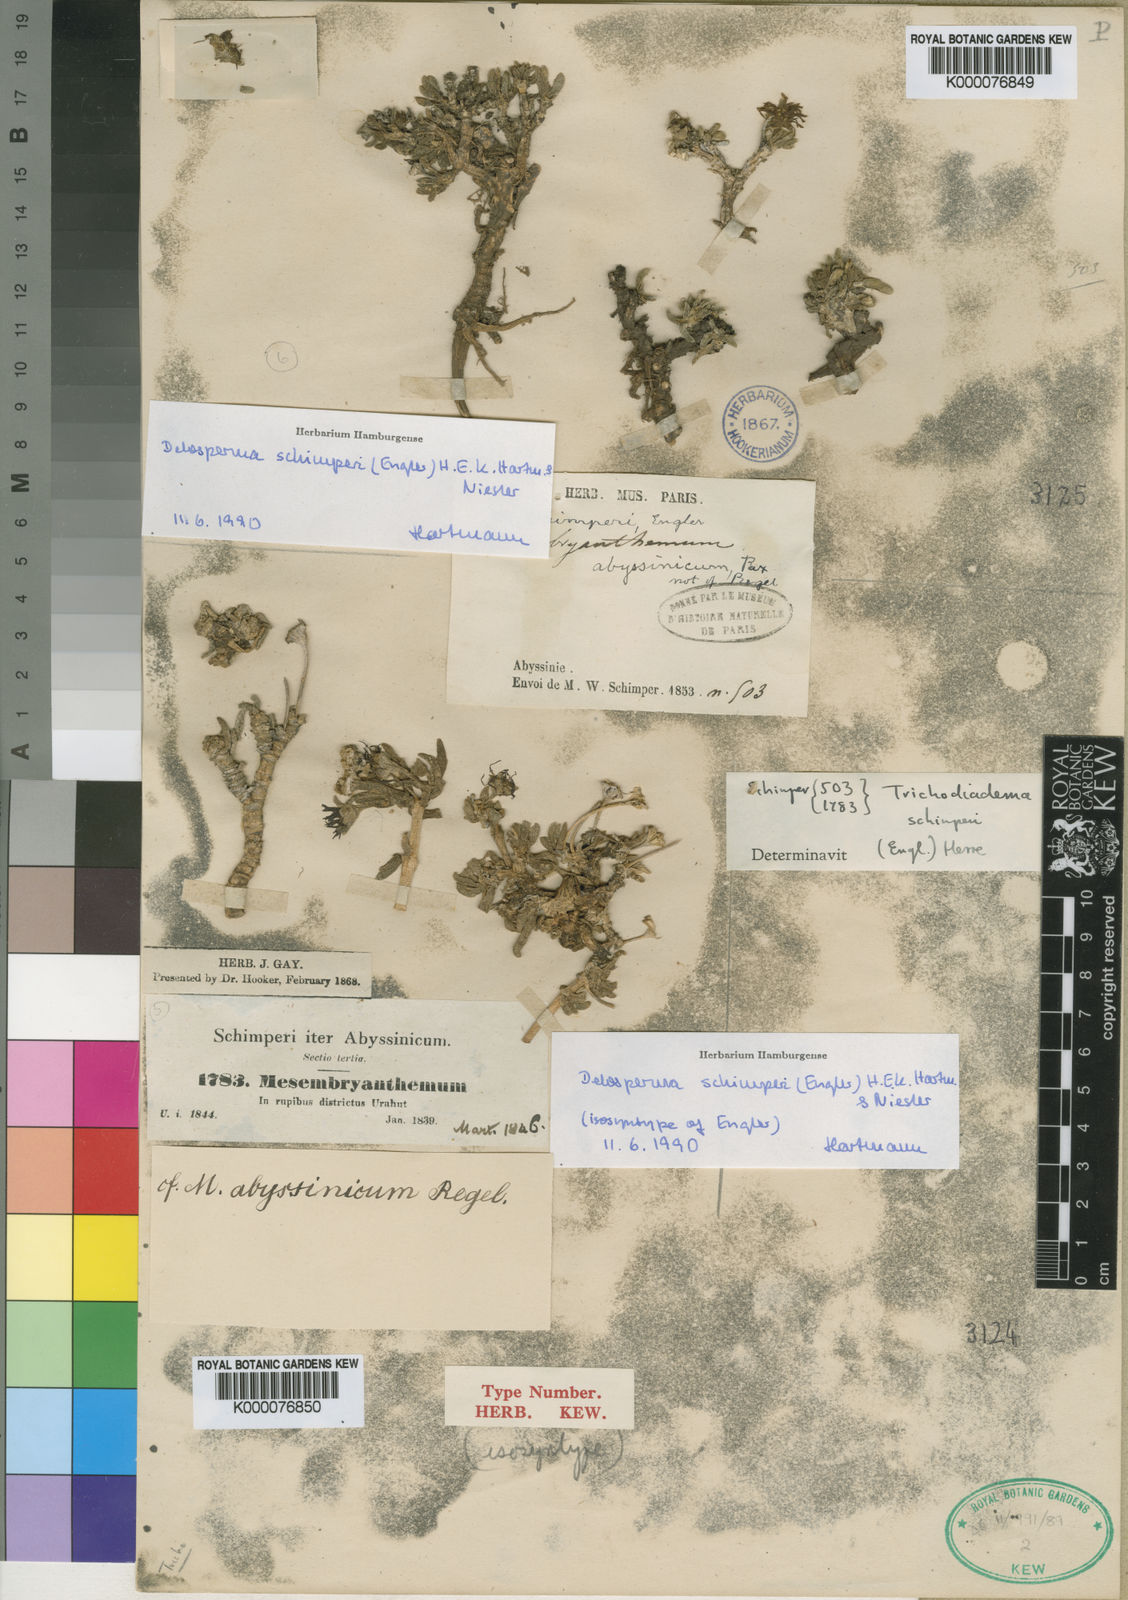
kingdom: Plantae
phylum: Tracheophyta
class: Magnoliopsida
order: Caryophyllales
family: Aizoaceae
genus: Delosperma
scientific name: Delosperma schimperi
